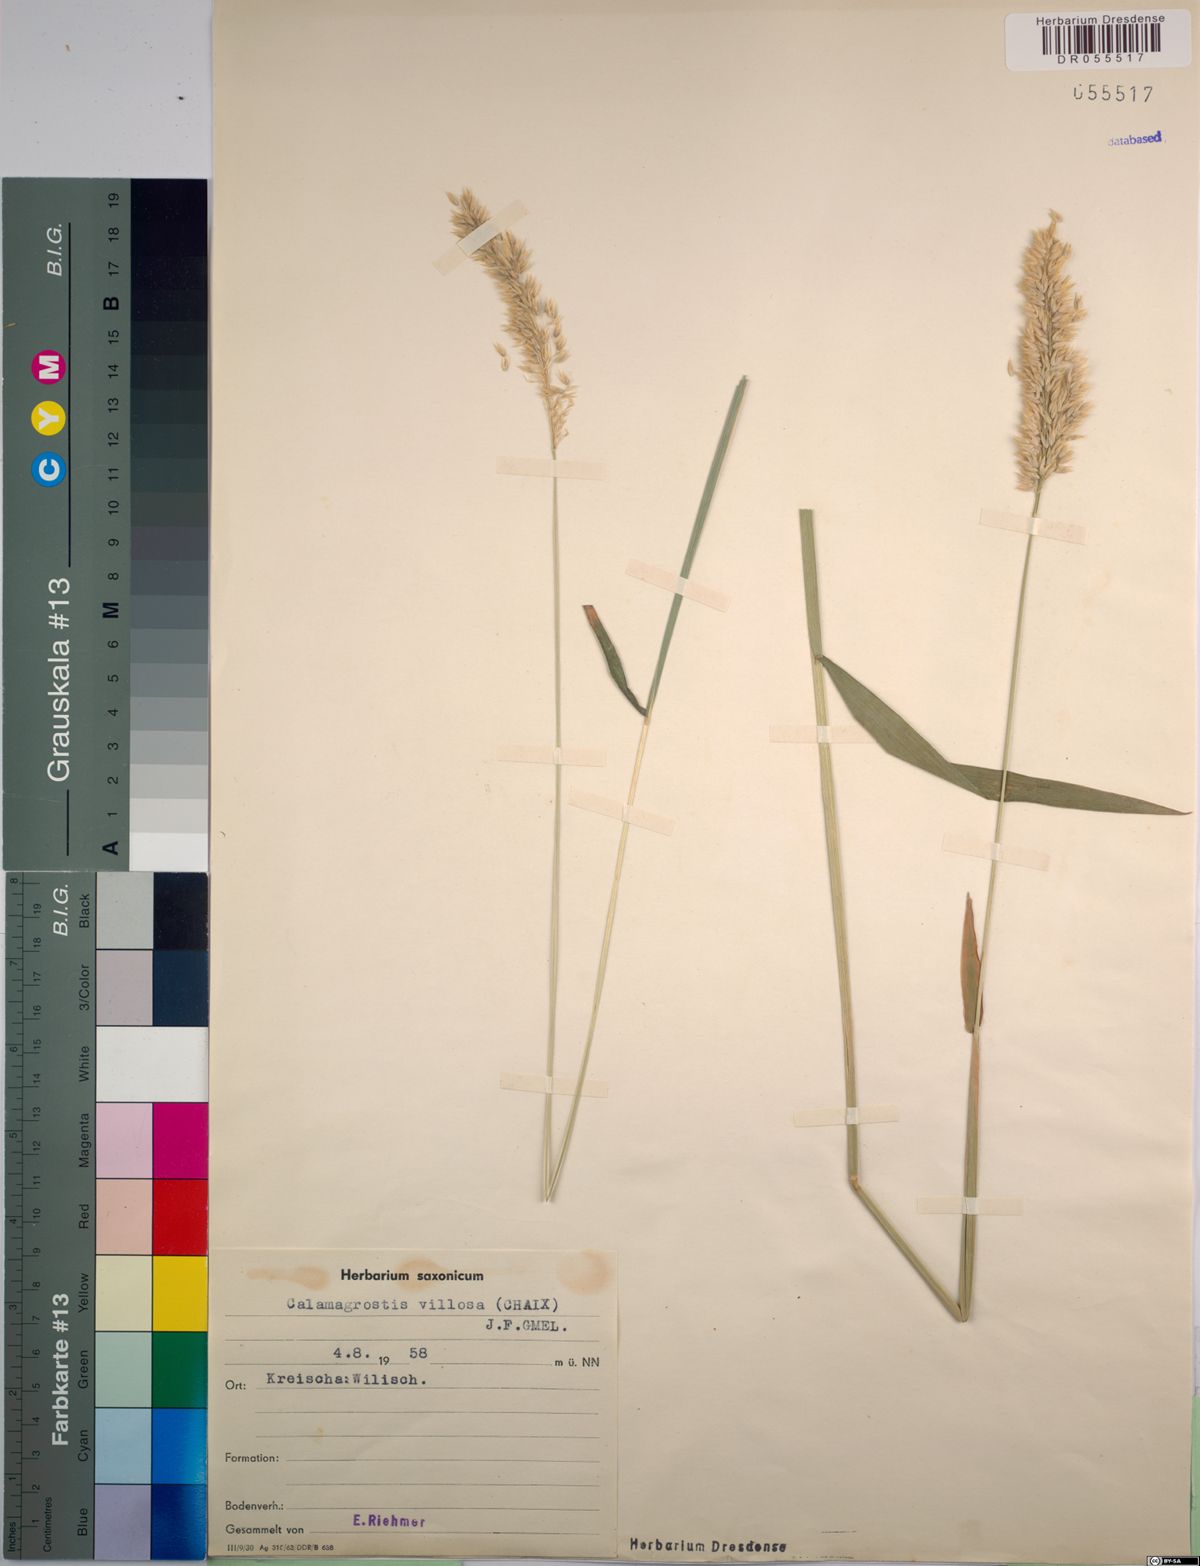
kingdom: Plantae
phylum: Tracheophyta
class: Liliopsida
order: Poales
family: Poaceae
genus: Calamagrostis
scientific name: Calamagrostis villosa
